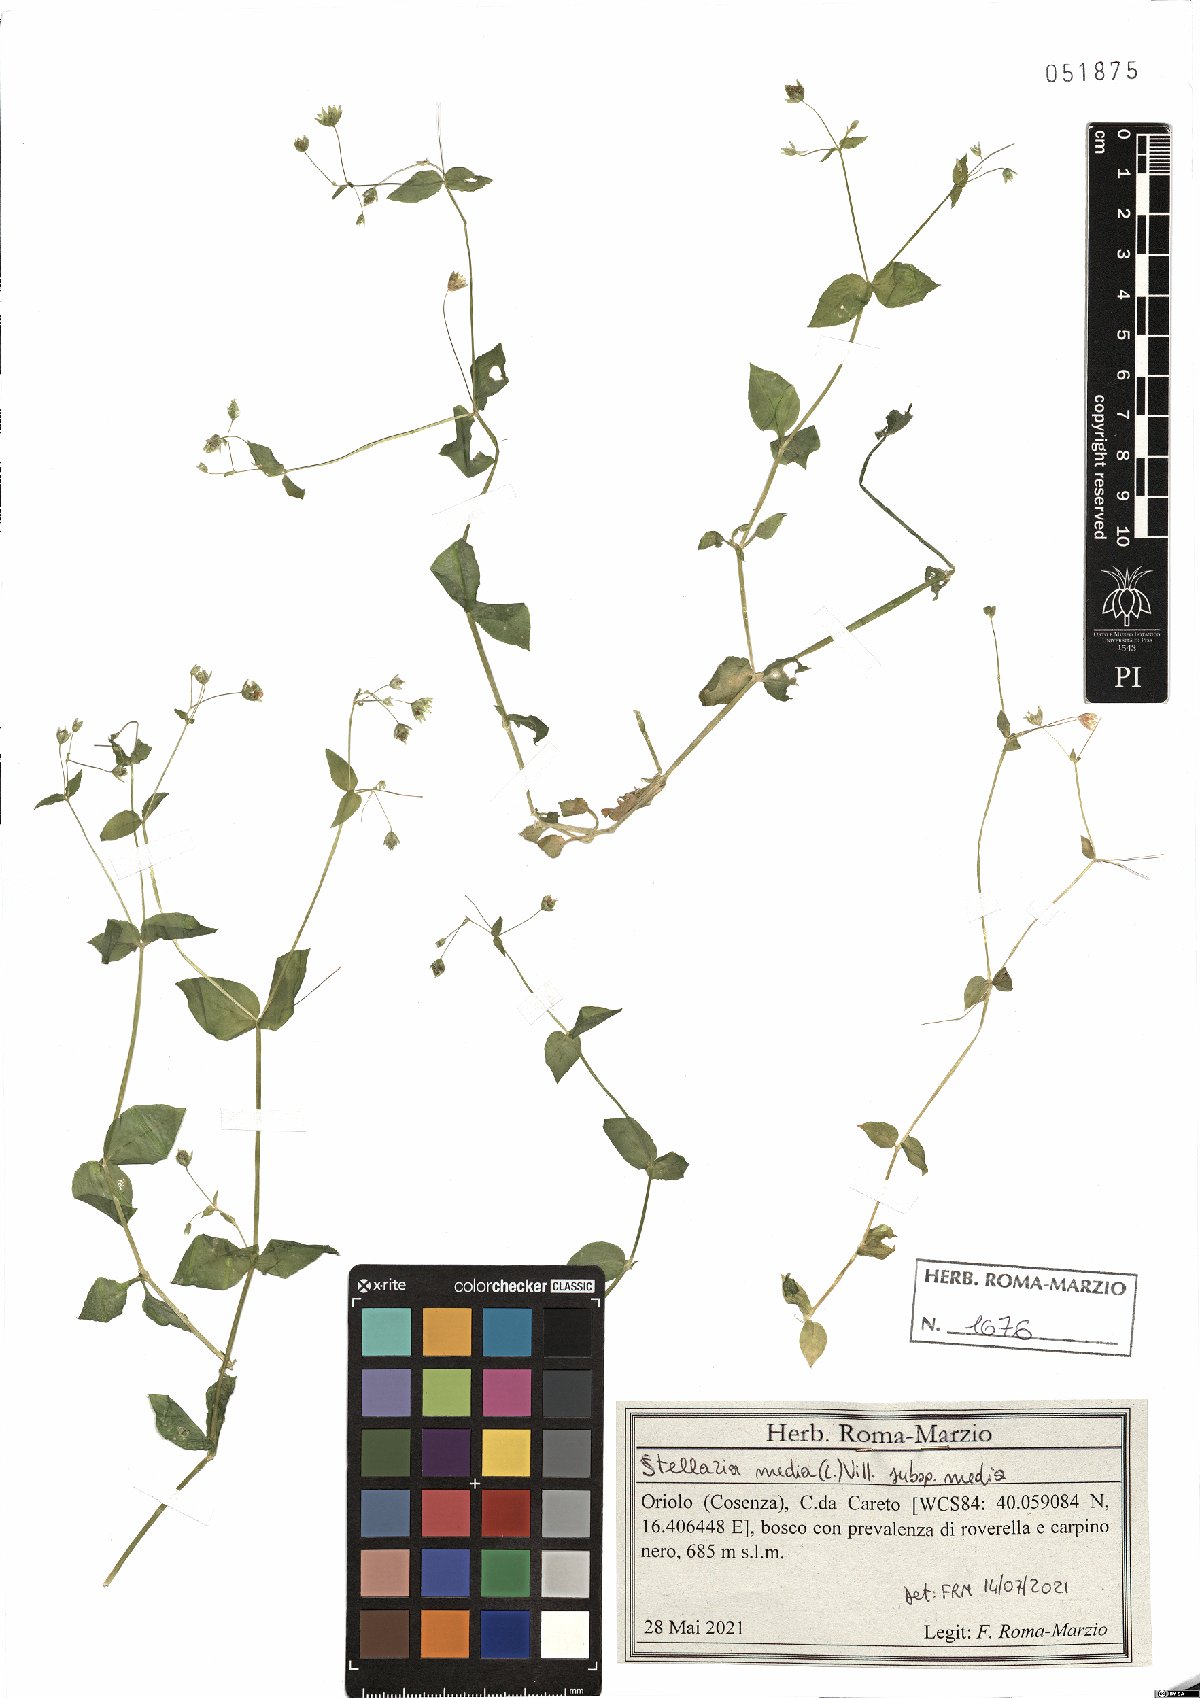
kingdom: Plantae
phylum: Tracheophyta
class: Magnoliopsida
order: Caryophyllales
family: Caryophyllaceae
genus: Stellaria
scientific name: Stellaria media
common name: Common chickweed
